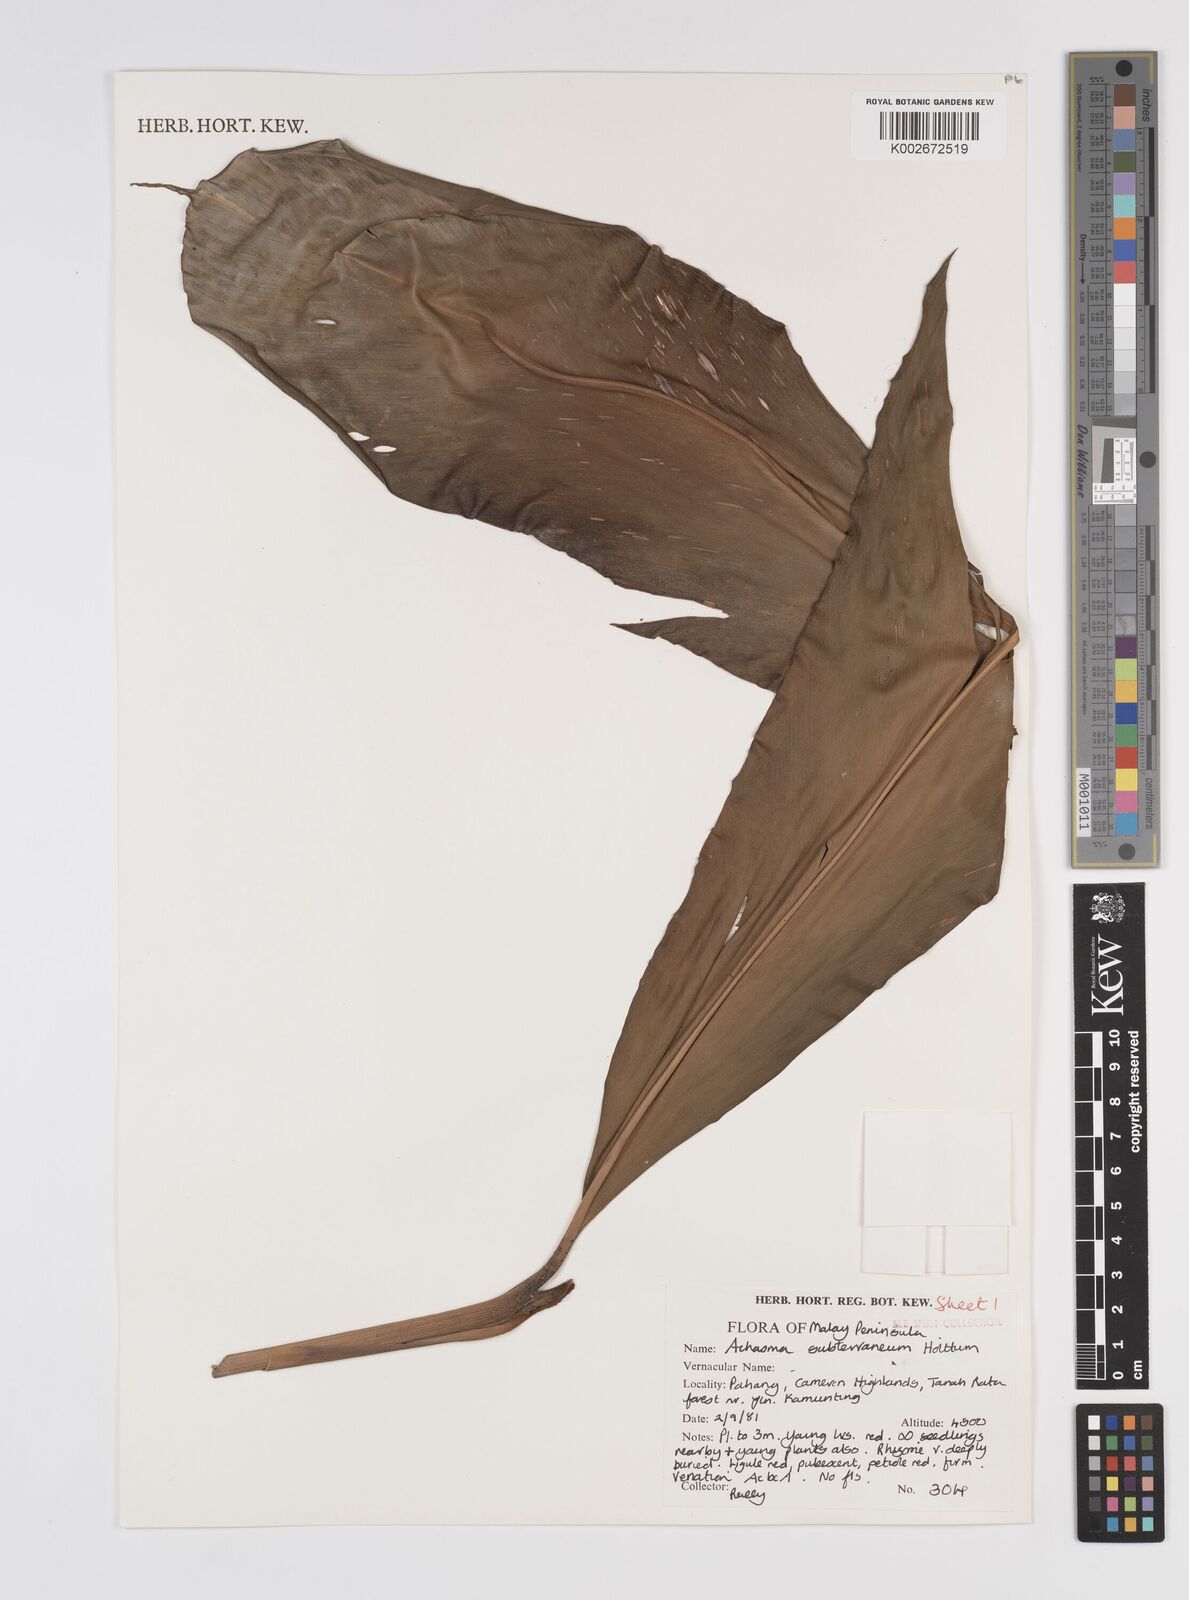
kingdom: Plantae
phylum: Tracheophyta
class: Liliopsida
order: Zingiberales
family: Zingiberaceae
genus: Etlingera
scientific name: Etlingera subterranea
